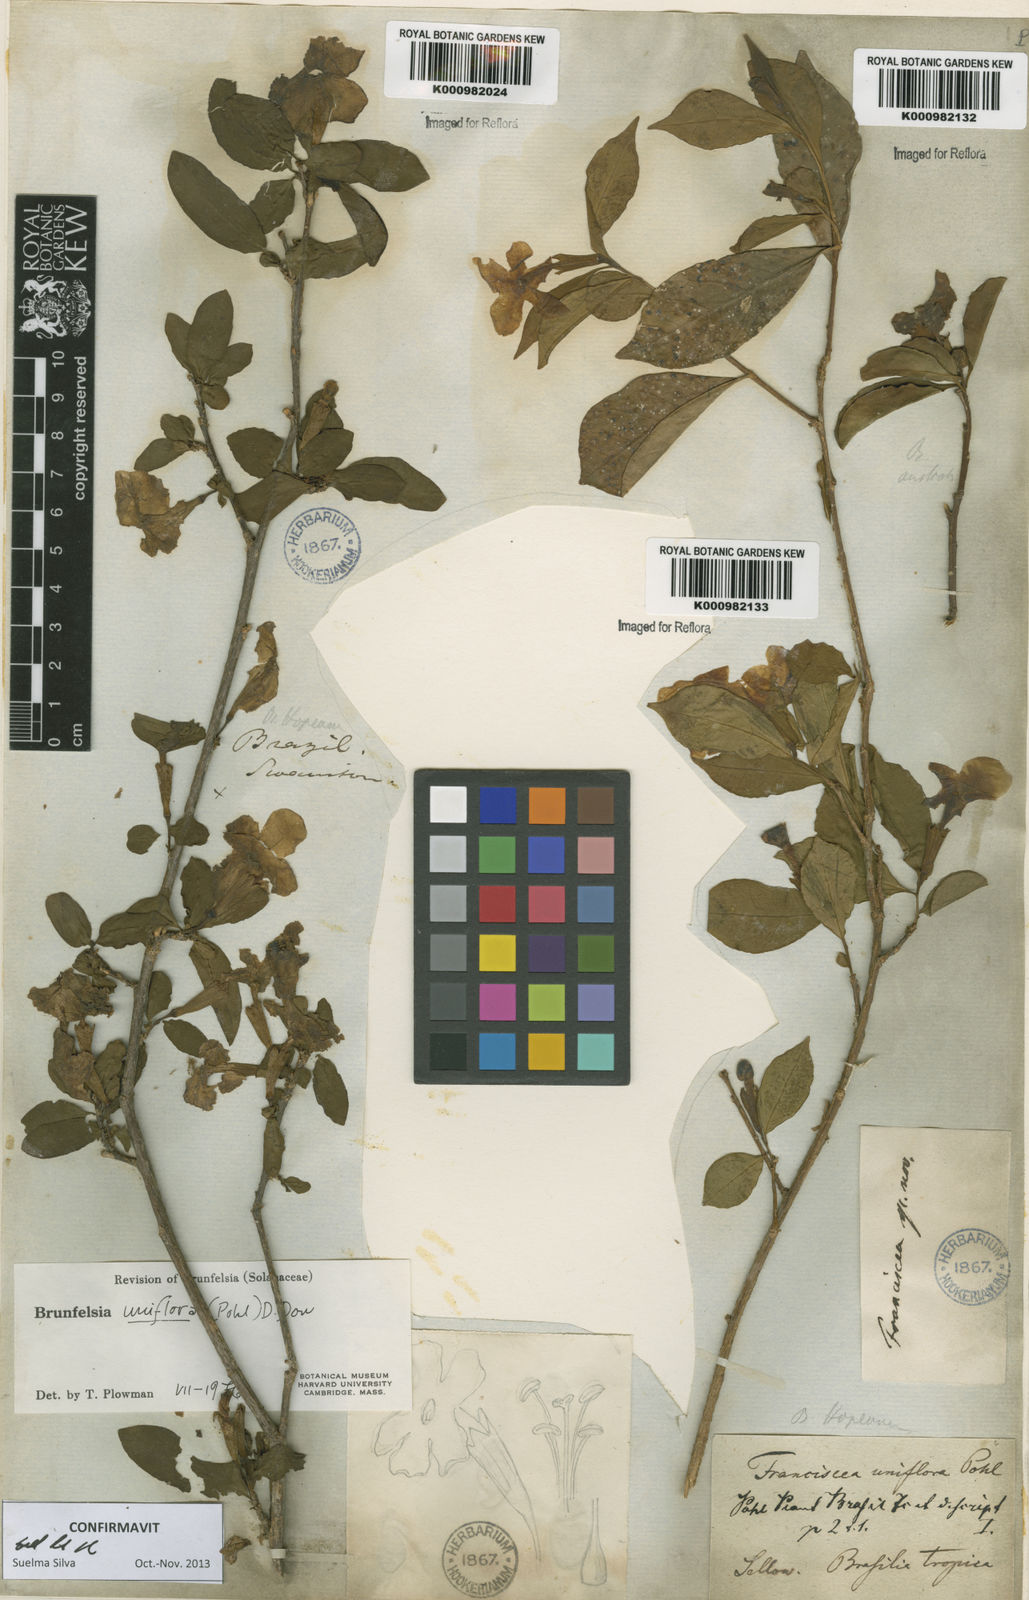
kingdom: Plantae
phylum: Tracheophyta
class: Magnoliopsida
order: Solanales
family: Solanaceae
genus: Brunfelsia
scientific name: Brunfelsia uniflora
